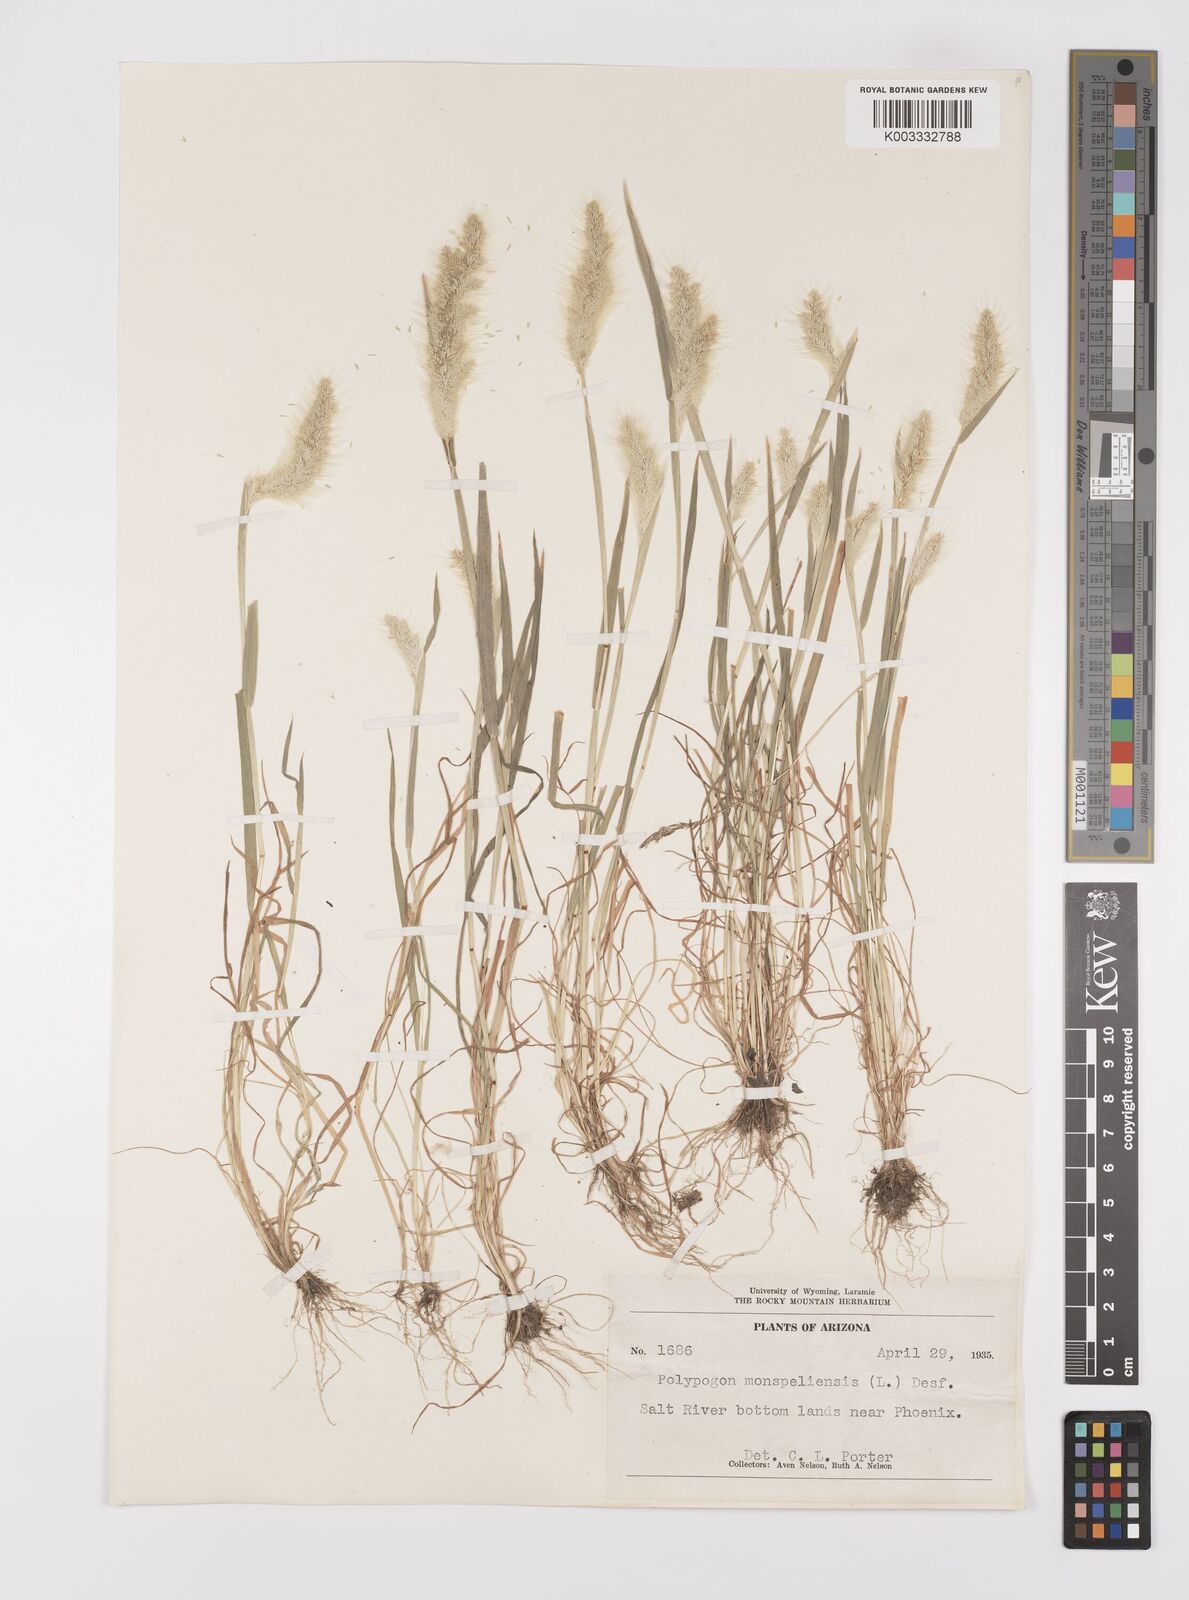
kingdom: Plantae
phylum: Tracheophyta
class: Liliopsida
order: Poales
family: Poaceae
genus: Polypogon
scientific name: Polypogon monspeliensis
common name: Annual rabbitsfoot grass
